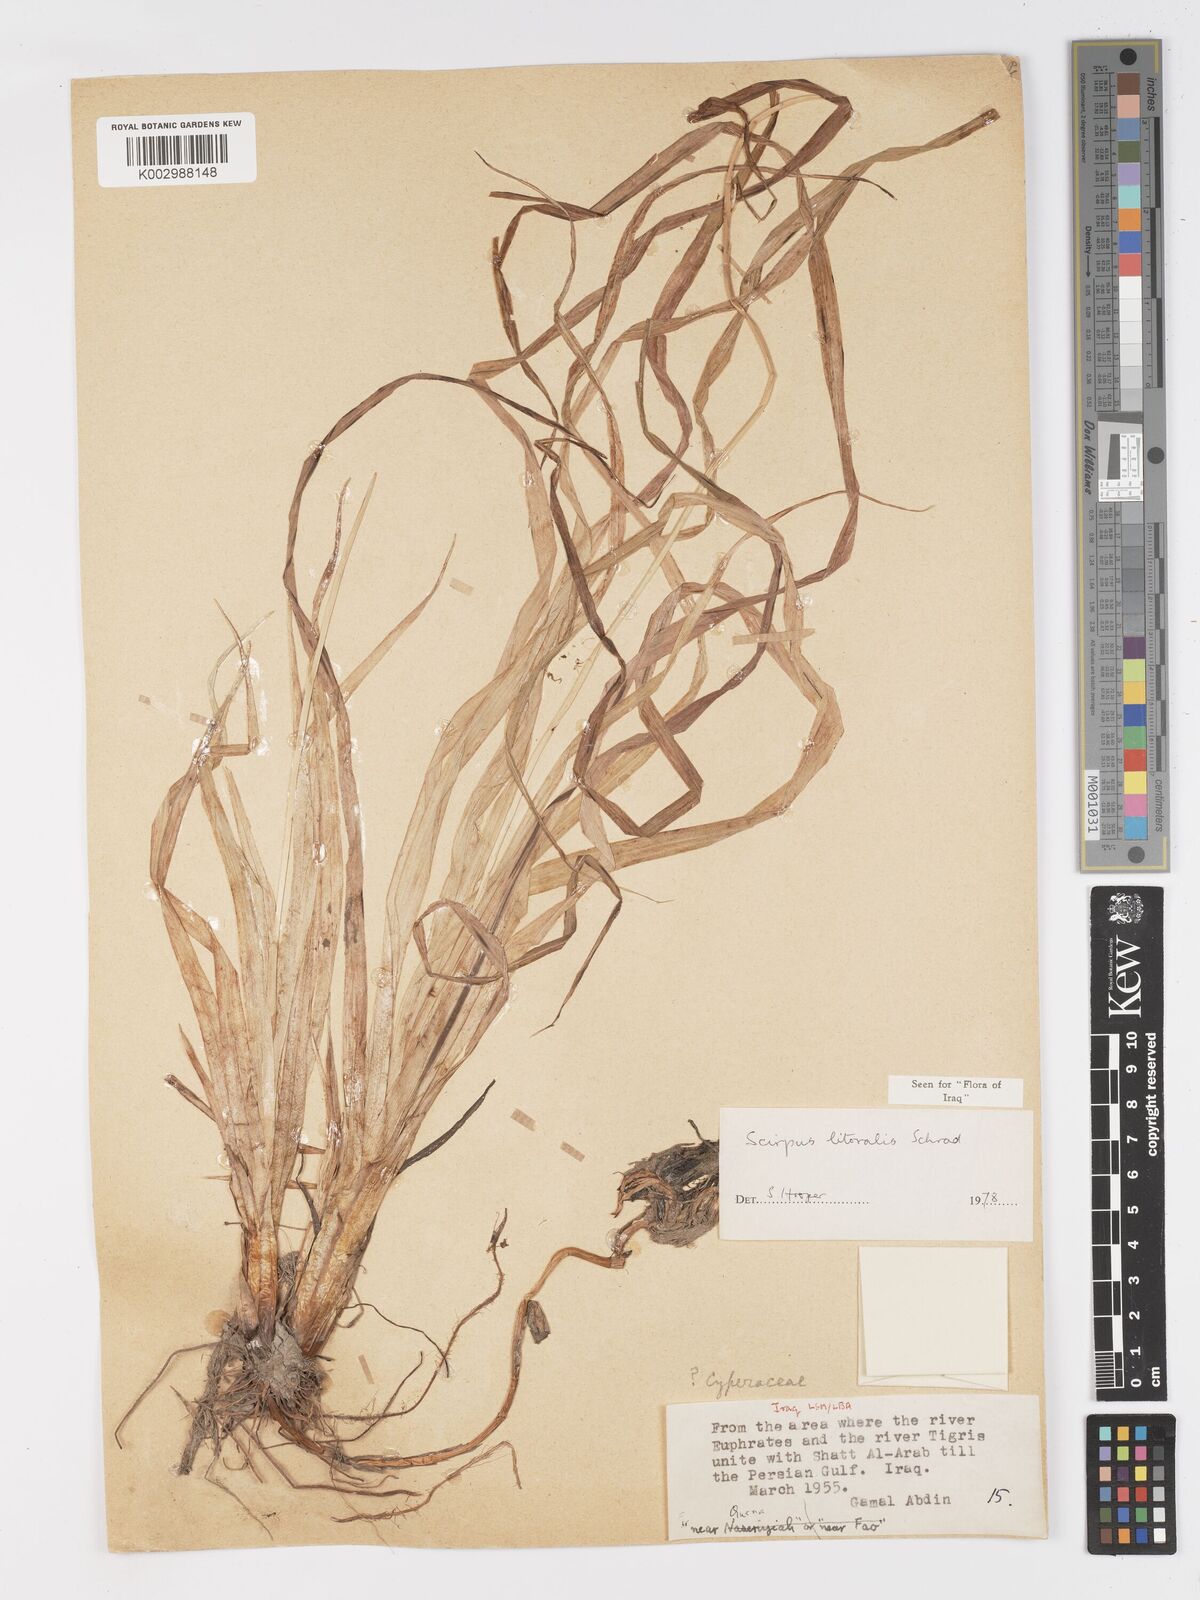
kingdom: Plantae
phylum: Tracheophyta
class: Liliopsida
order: Poales
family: Cyperaceae
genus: Schoenoplectus
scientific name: Schoenoplectus litoralis
